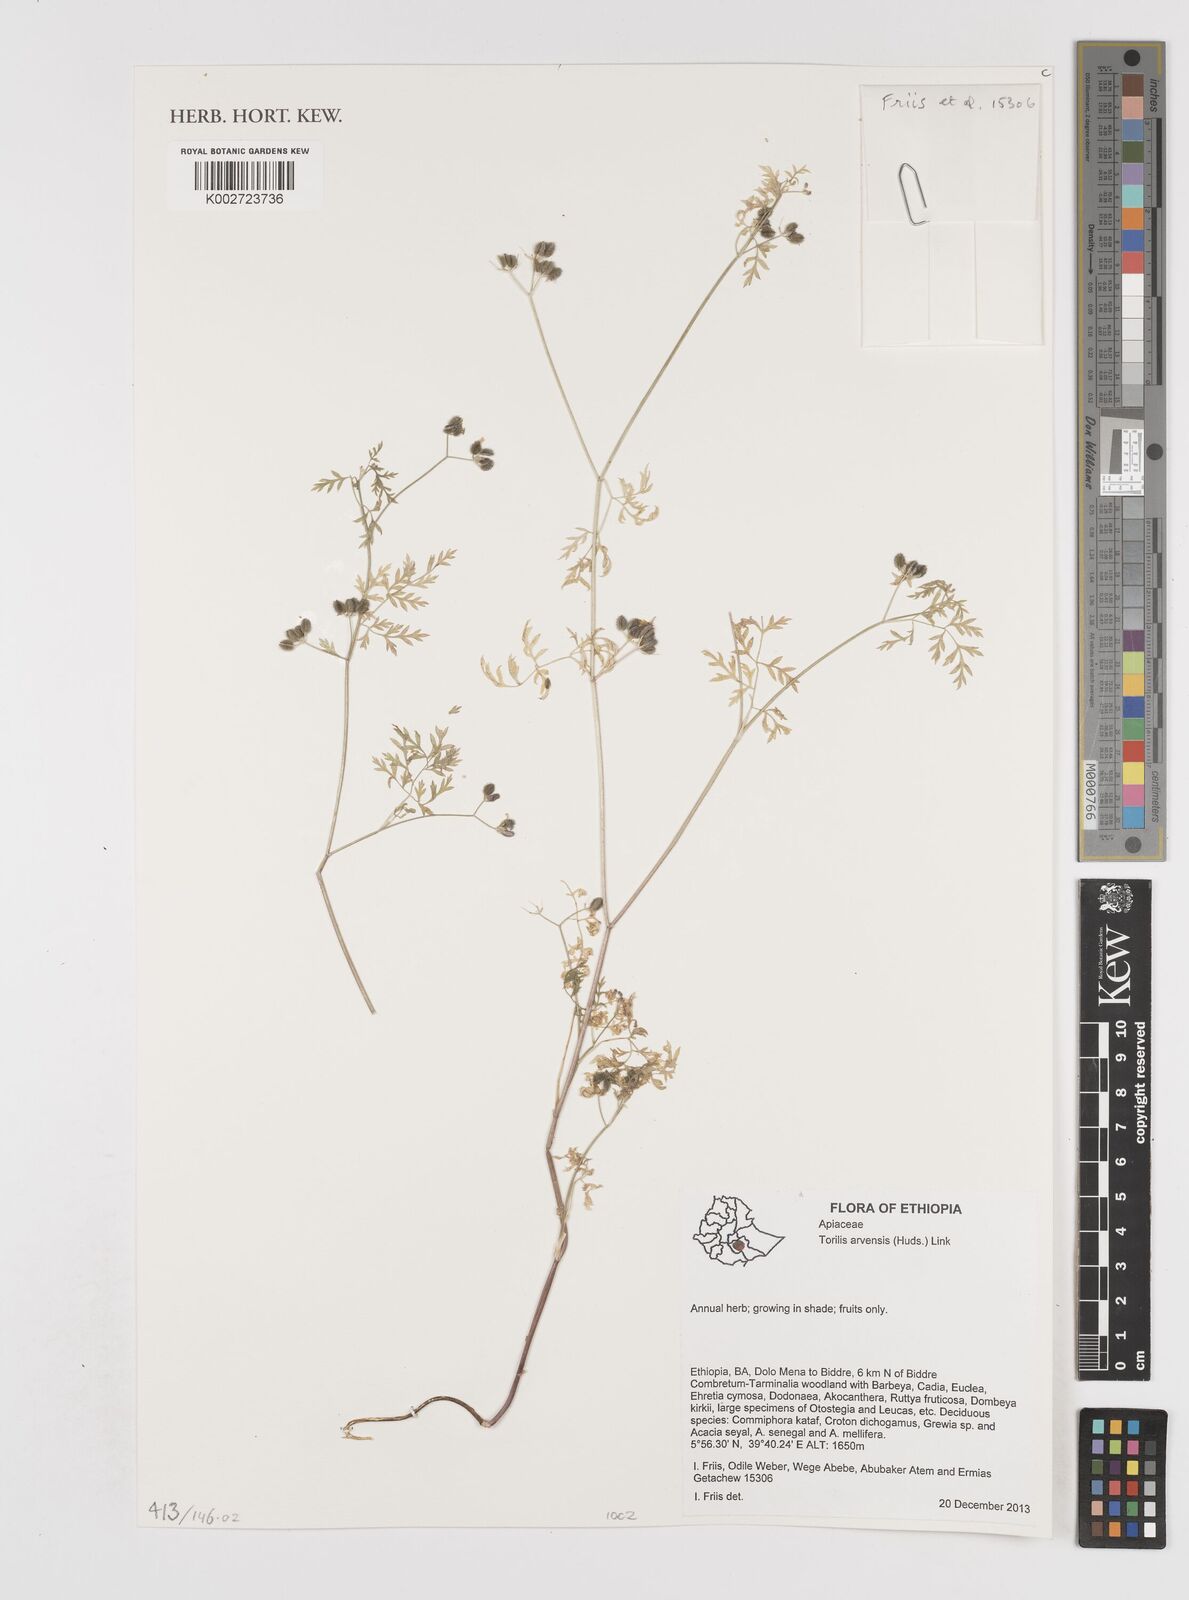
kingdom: Plantae
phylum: Tracheophyta
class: Magnoliopsida
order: Apiales
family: Apiaceae
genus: Torilis
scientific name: Torilis arvensis
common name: Spreading hedge-parsley
